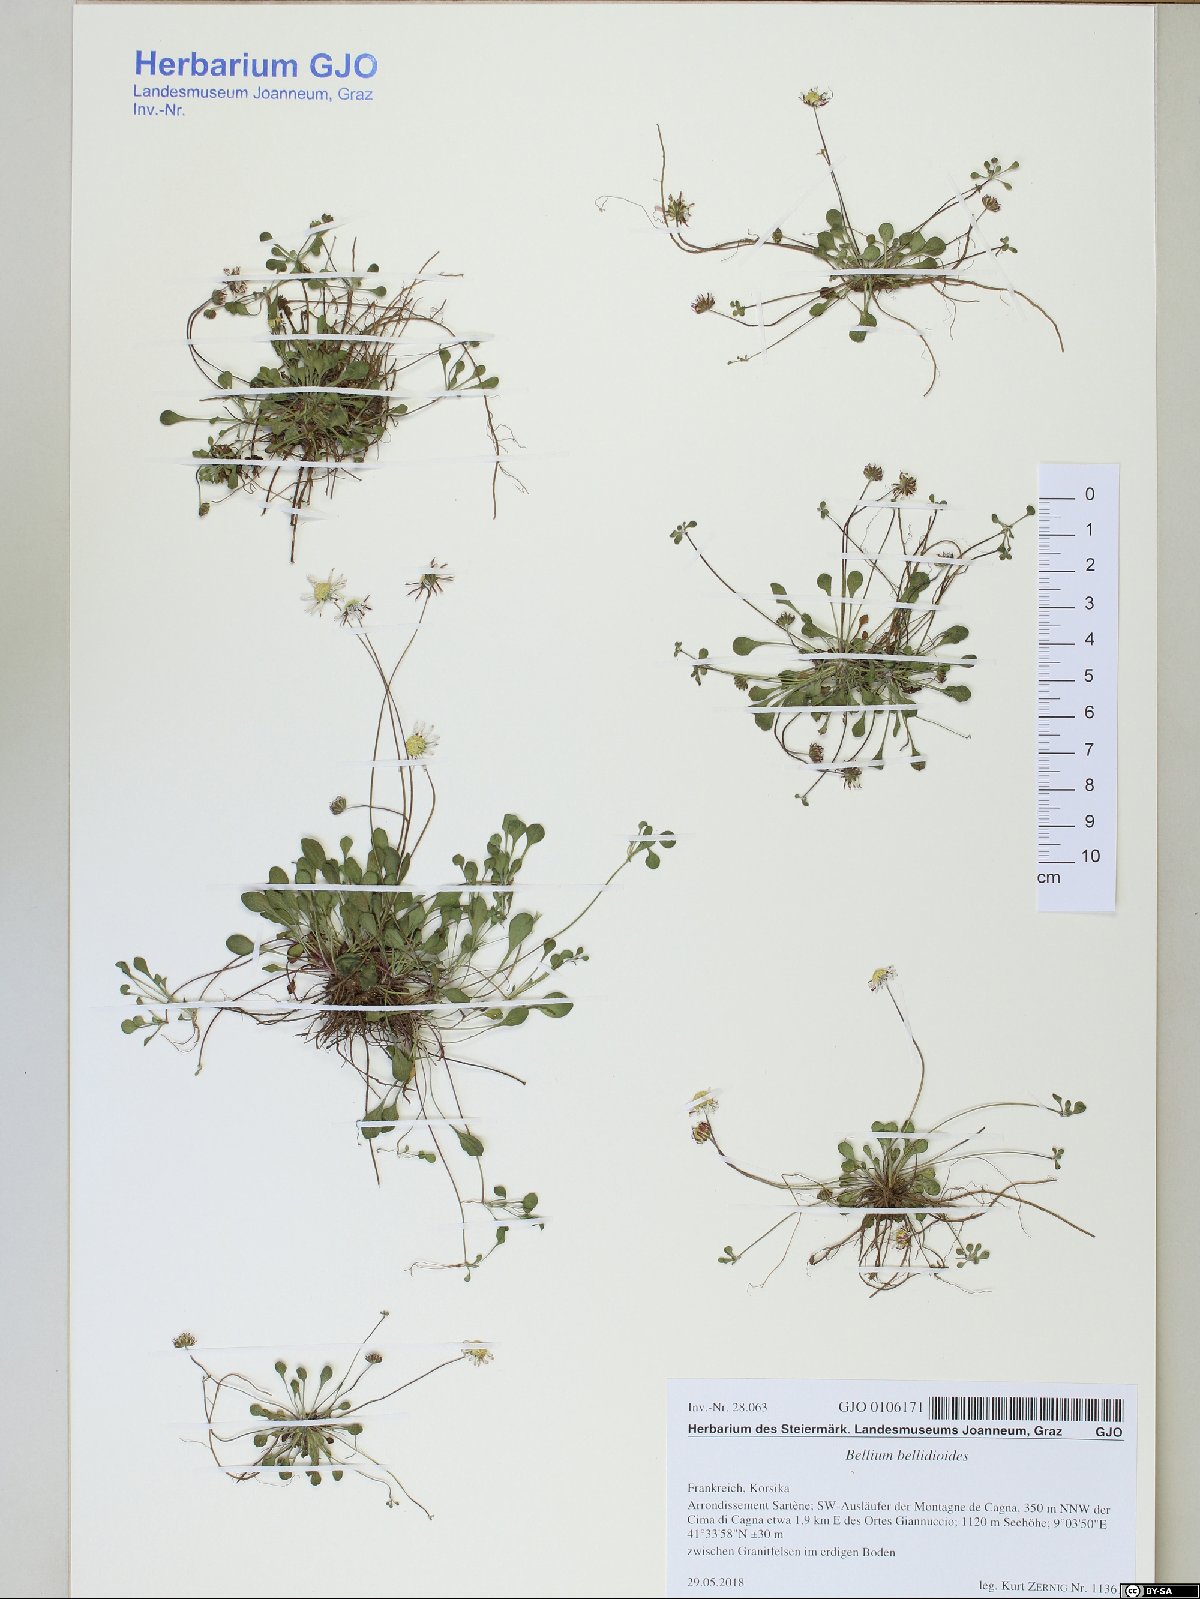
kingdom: Plantae
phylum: Tracheophyta
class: Magnoliopsida
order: Asterales
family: Asteraceae
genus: Bellium
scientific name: Bellium bellidioides
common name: False daisy
